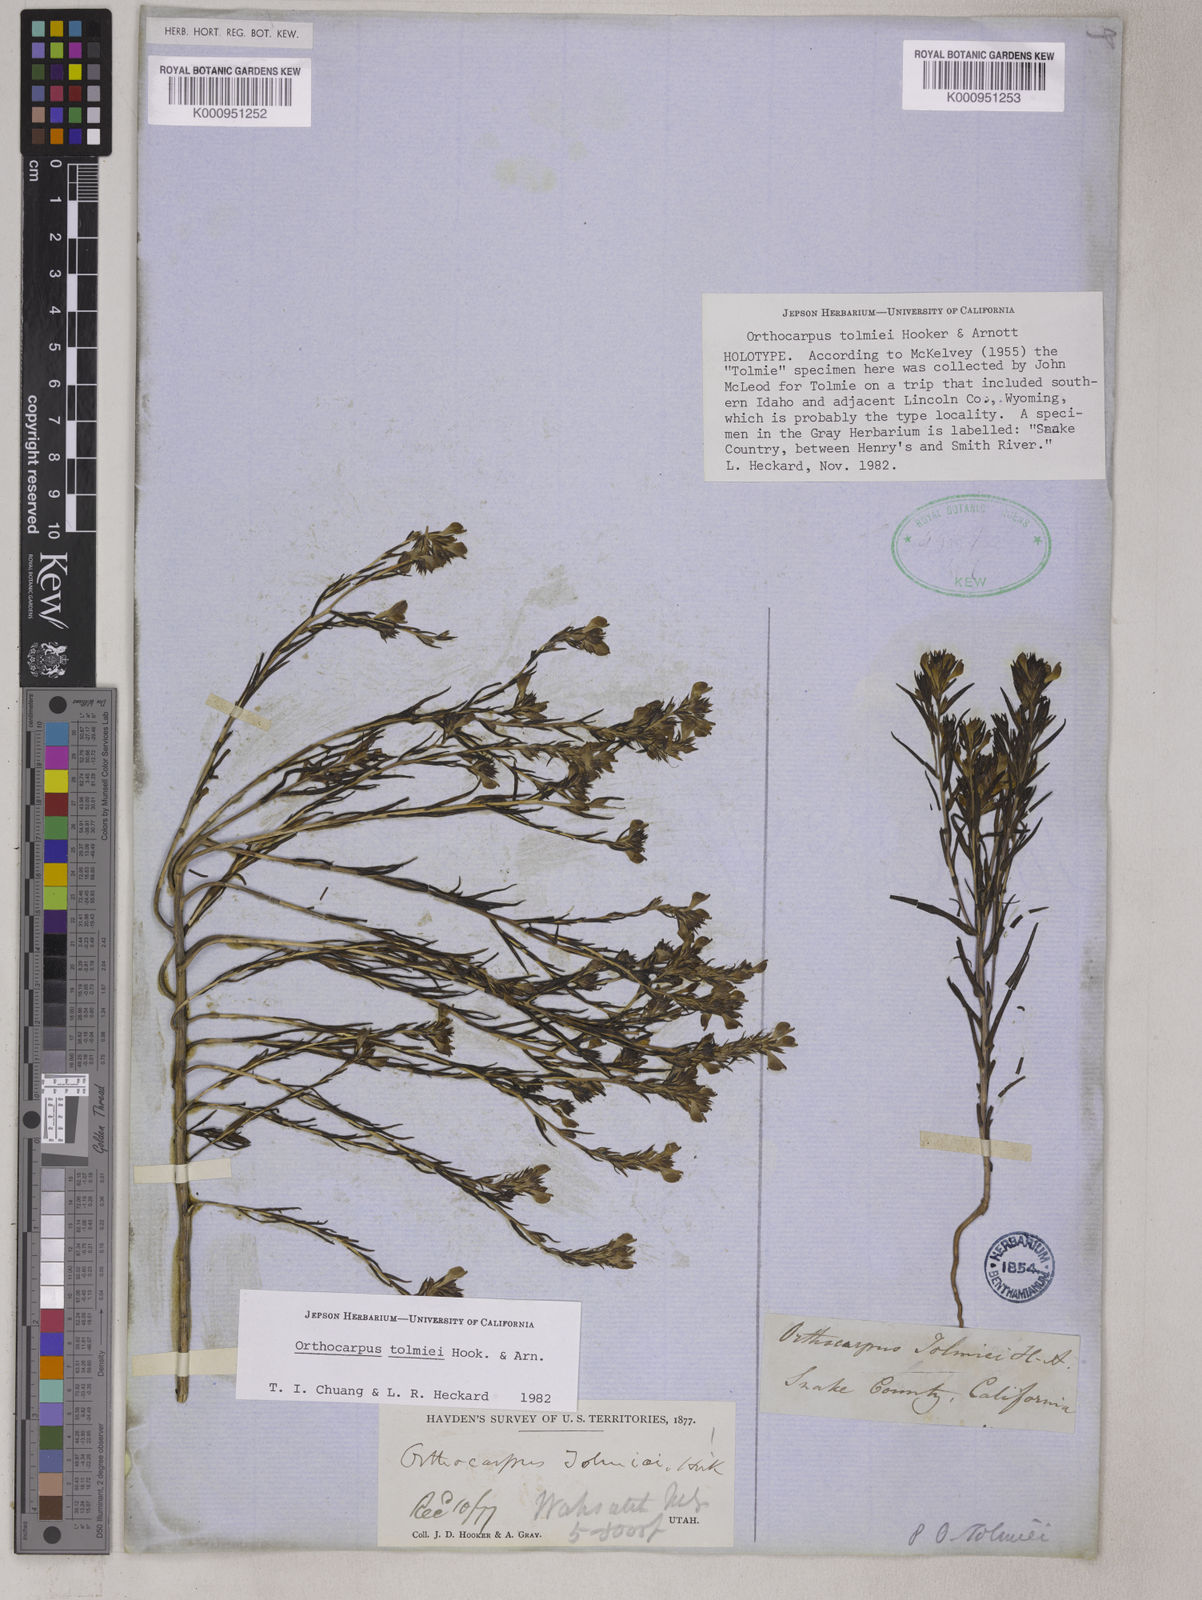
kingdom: Plantae
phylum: Tracheophyta
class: Magnoliopsida
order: Lamiales
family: Orobanchaceae
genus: Orthocarpus
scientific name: Orthocarpus tolmiei
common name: Tolmie's owl-clover
